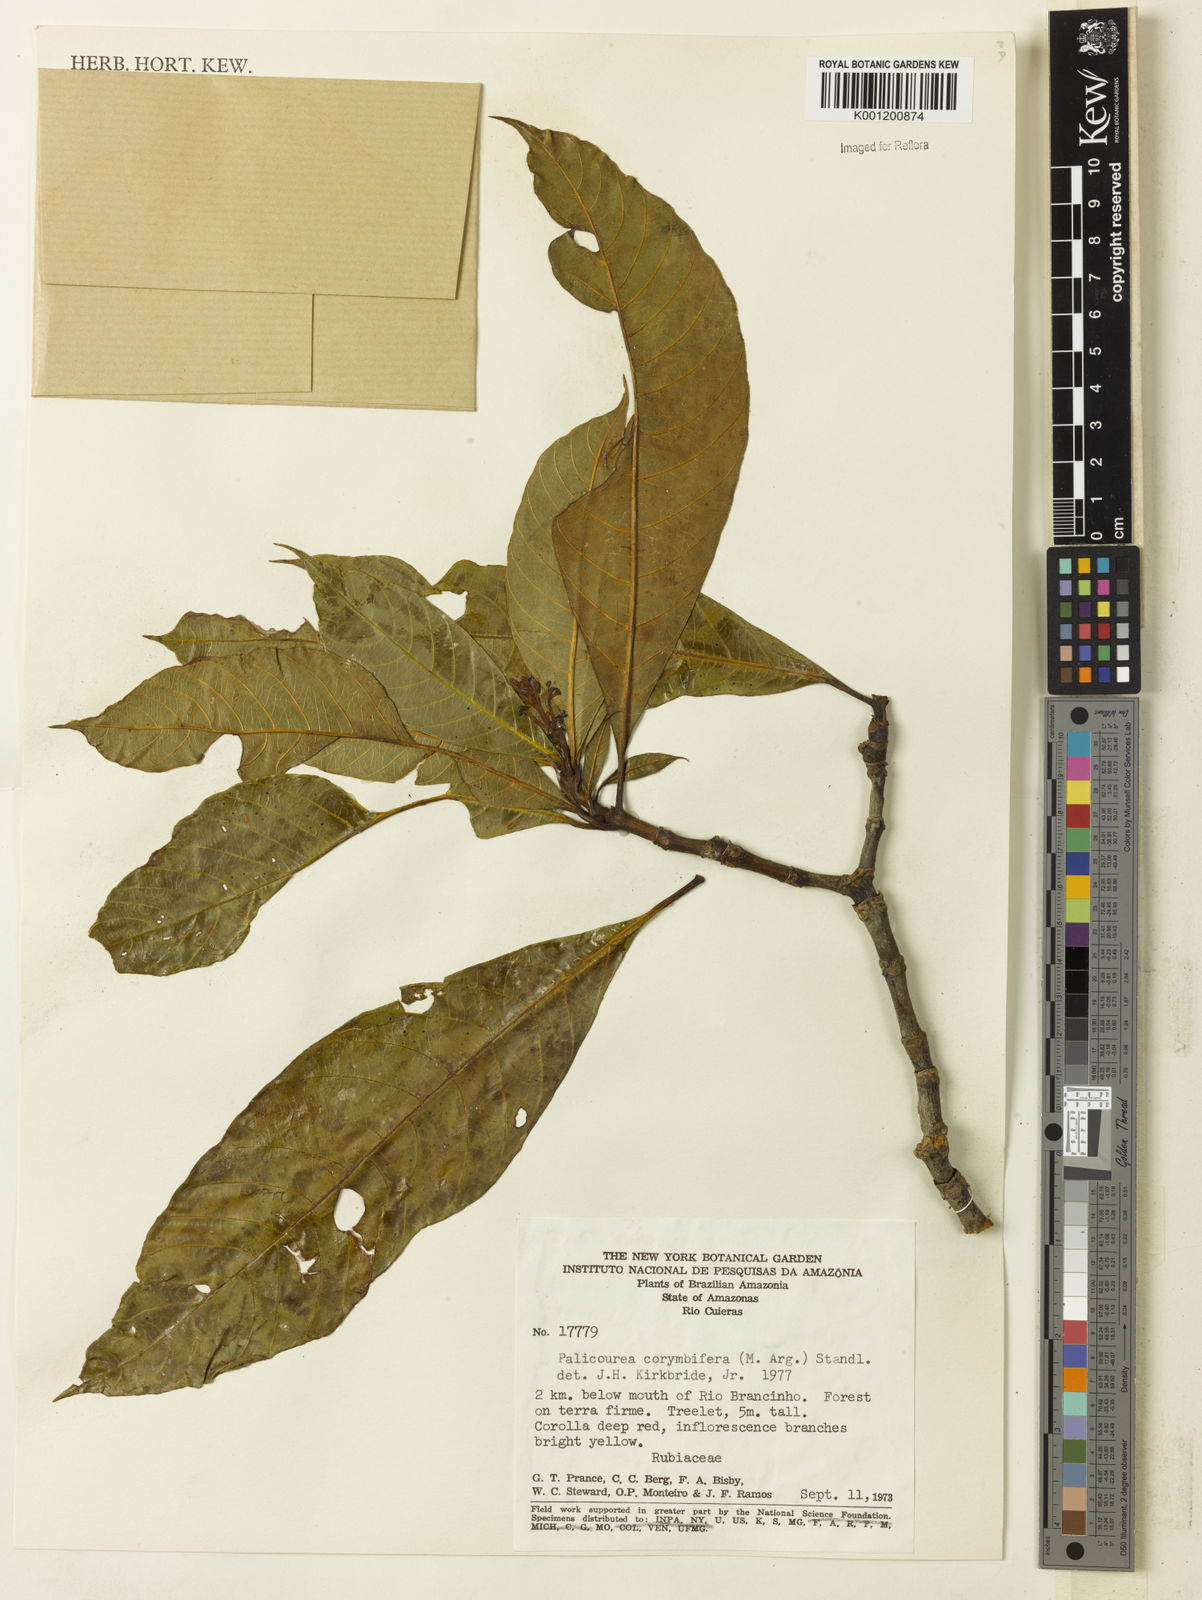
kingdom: Plantae
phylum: Tracheophyta
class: Magnoliopsida
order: Gentianales
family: Rubiaceae
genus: Palicourea
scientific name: Palicourea
